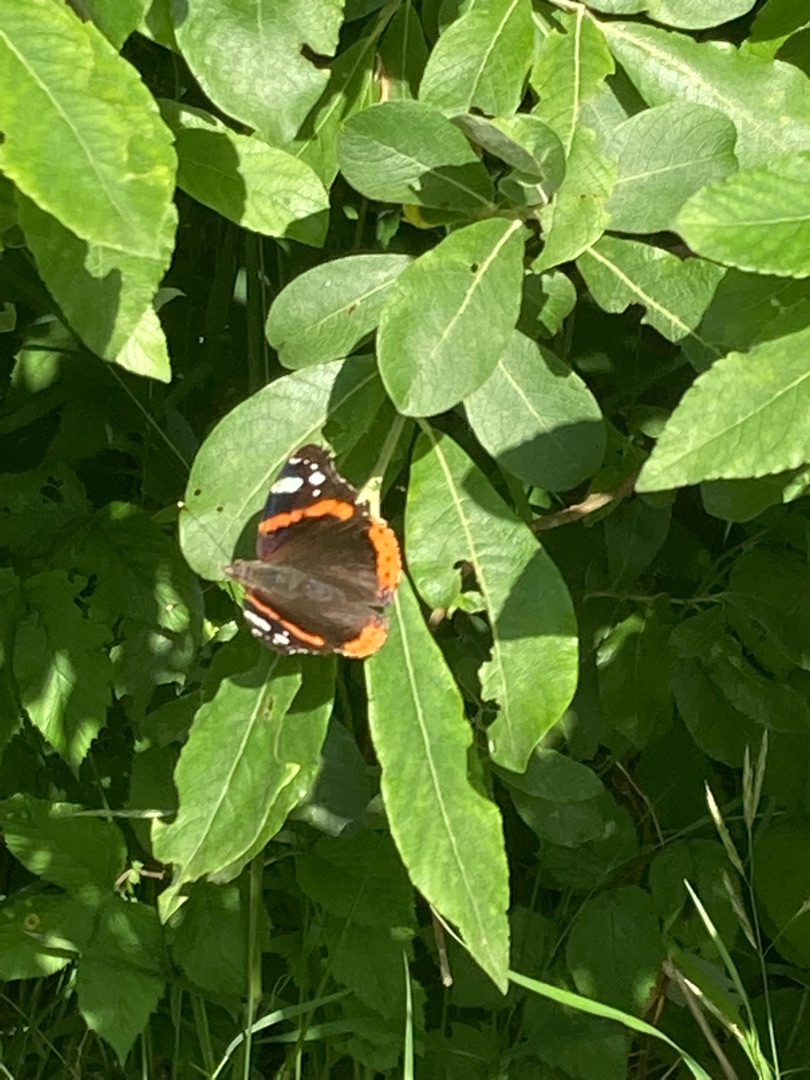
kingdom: Animalia
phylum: Arthropoda
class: Insecta
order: Lepidoptera
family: Nymphalidae
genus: Vanessa
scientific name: Vanessa atalanta
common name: Admiral
